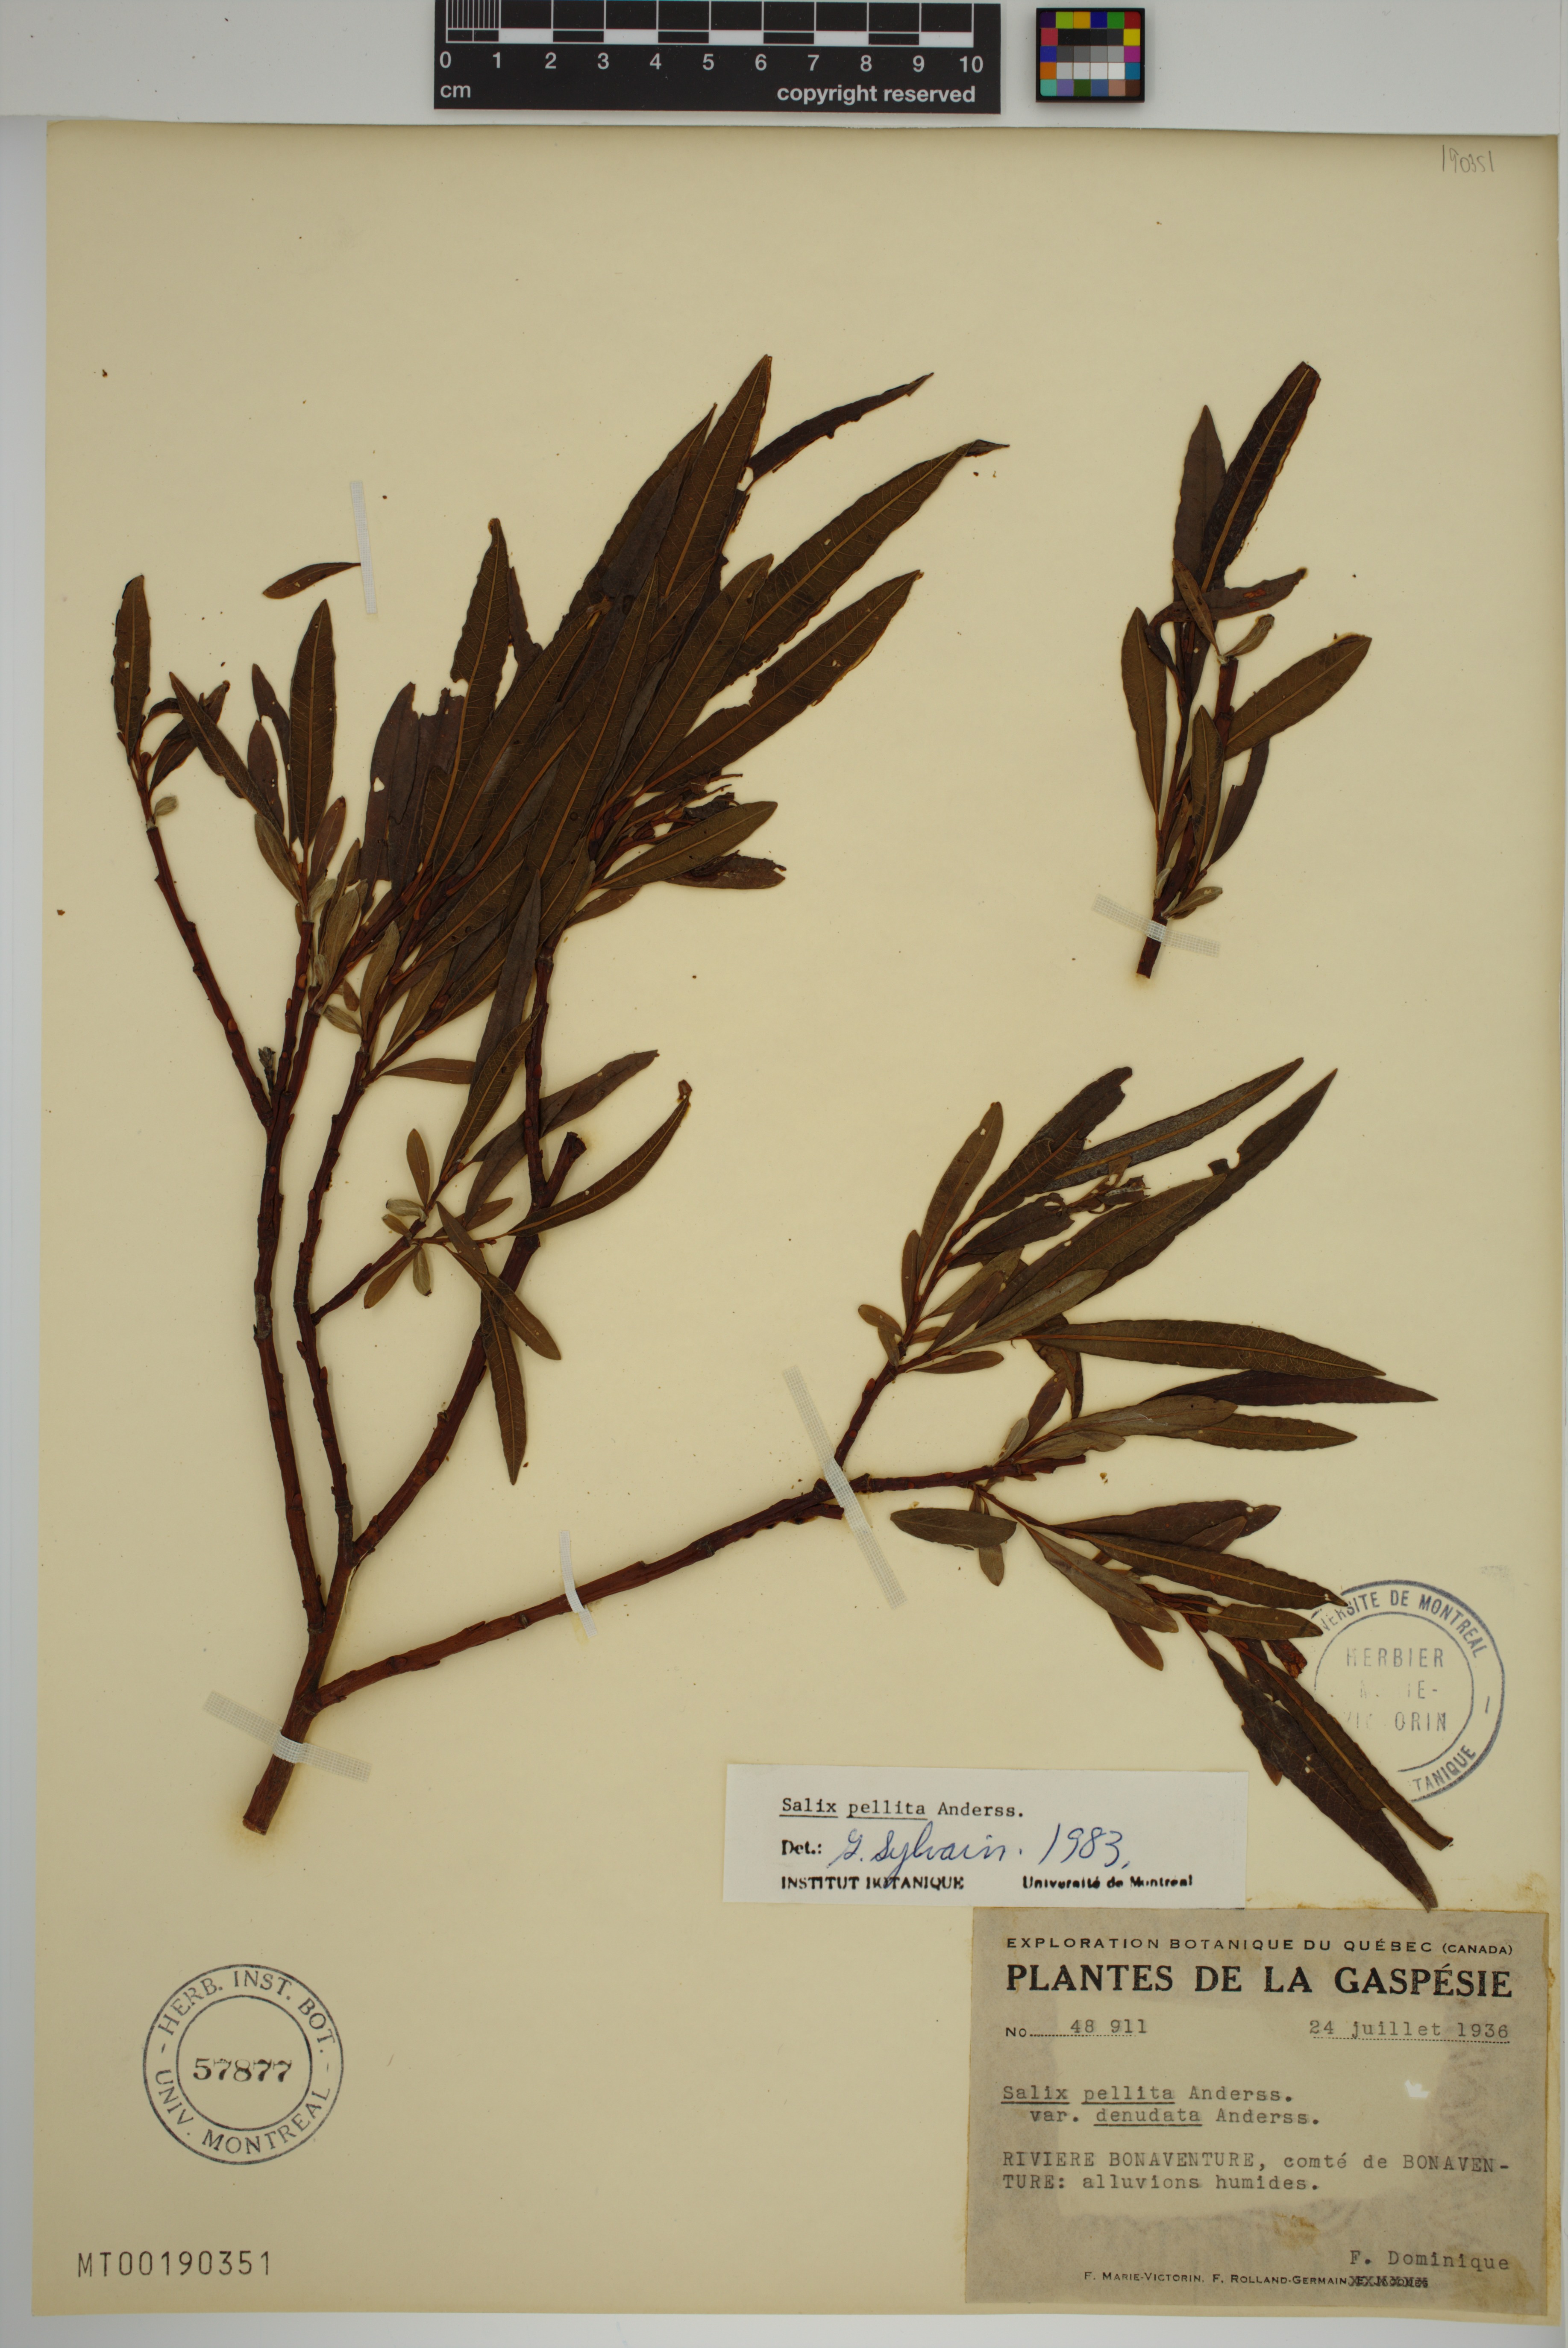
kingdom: Plantae
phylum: Tracheophyta
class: Magnoliopsida
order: Malpighiales
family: Salicaceae
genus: Salix
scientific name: Salix pellita
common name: Satiny willow
